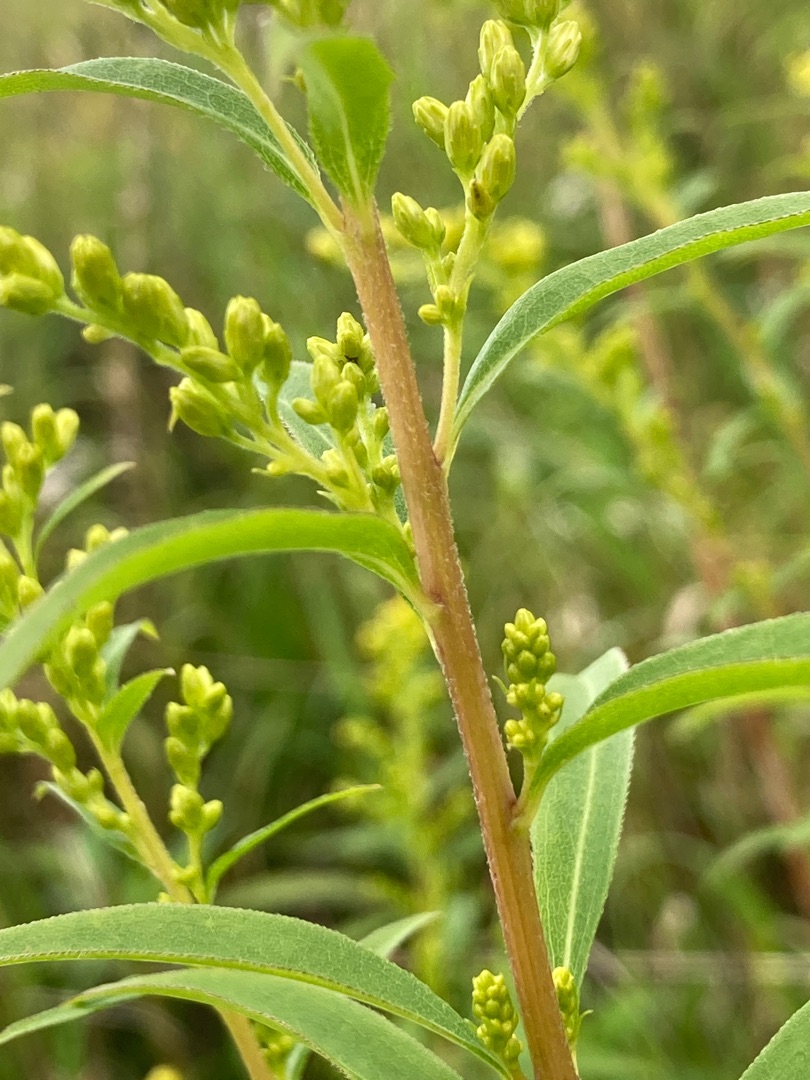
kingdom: Plantae
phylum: Tracheophyta
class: Magnoliopsida
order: Asterales
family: Asteraceae
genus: Solidago
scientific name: Solidago canadensis
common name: Kanadisk gyldenris
